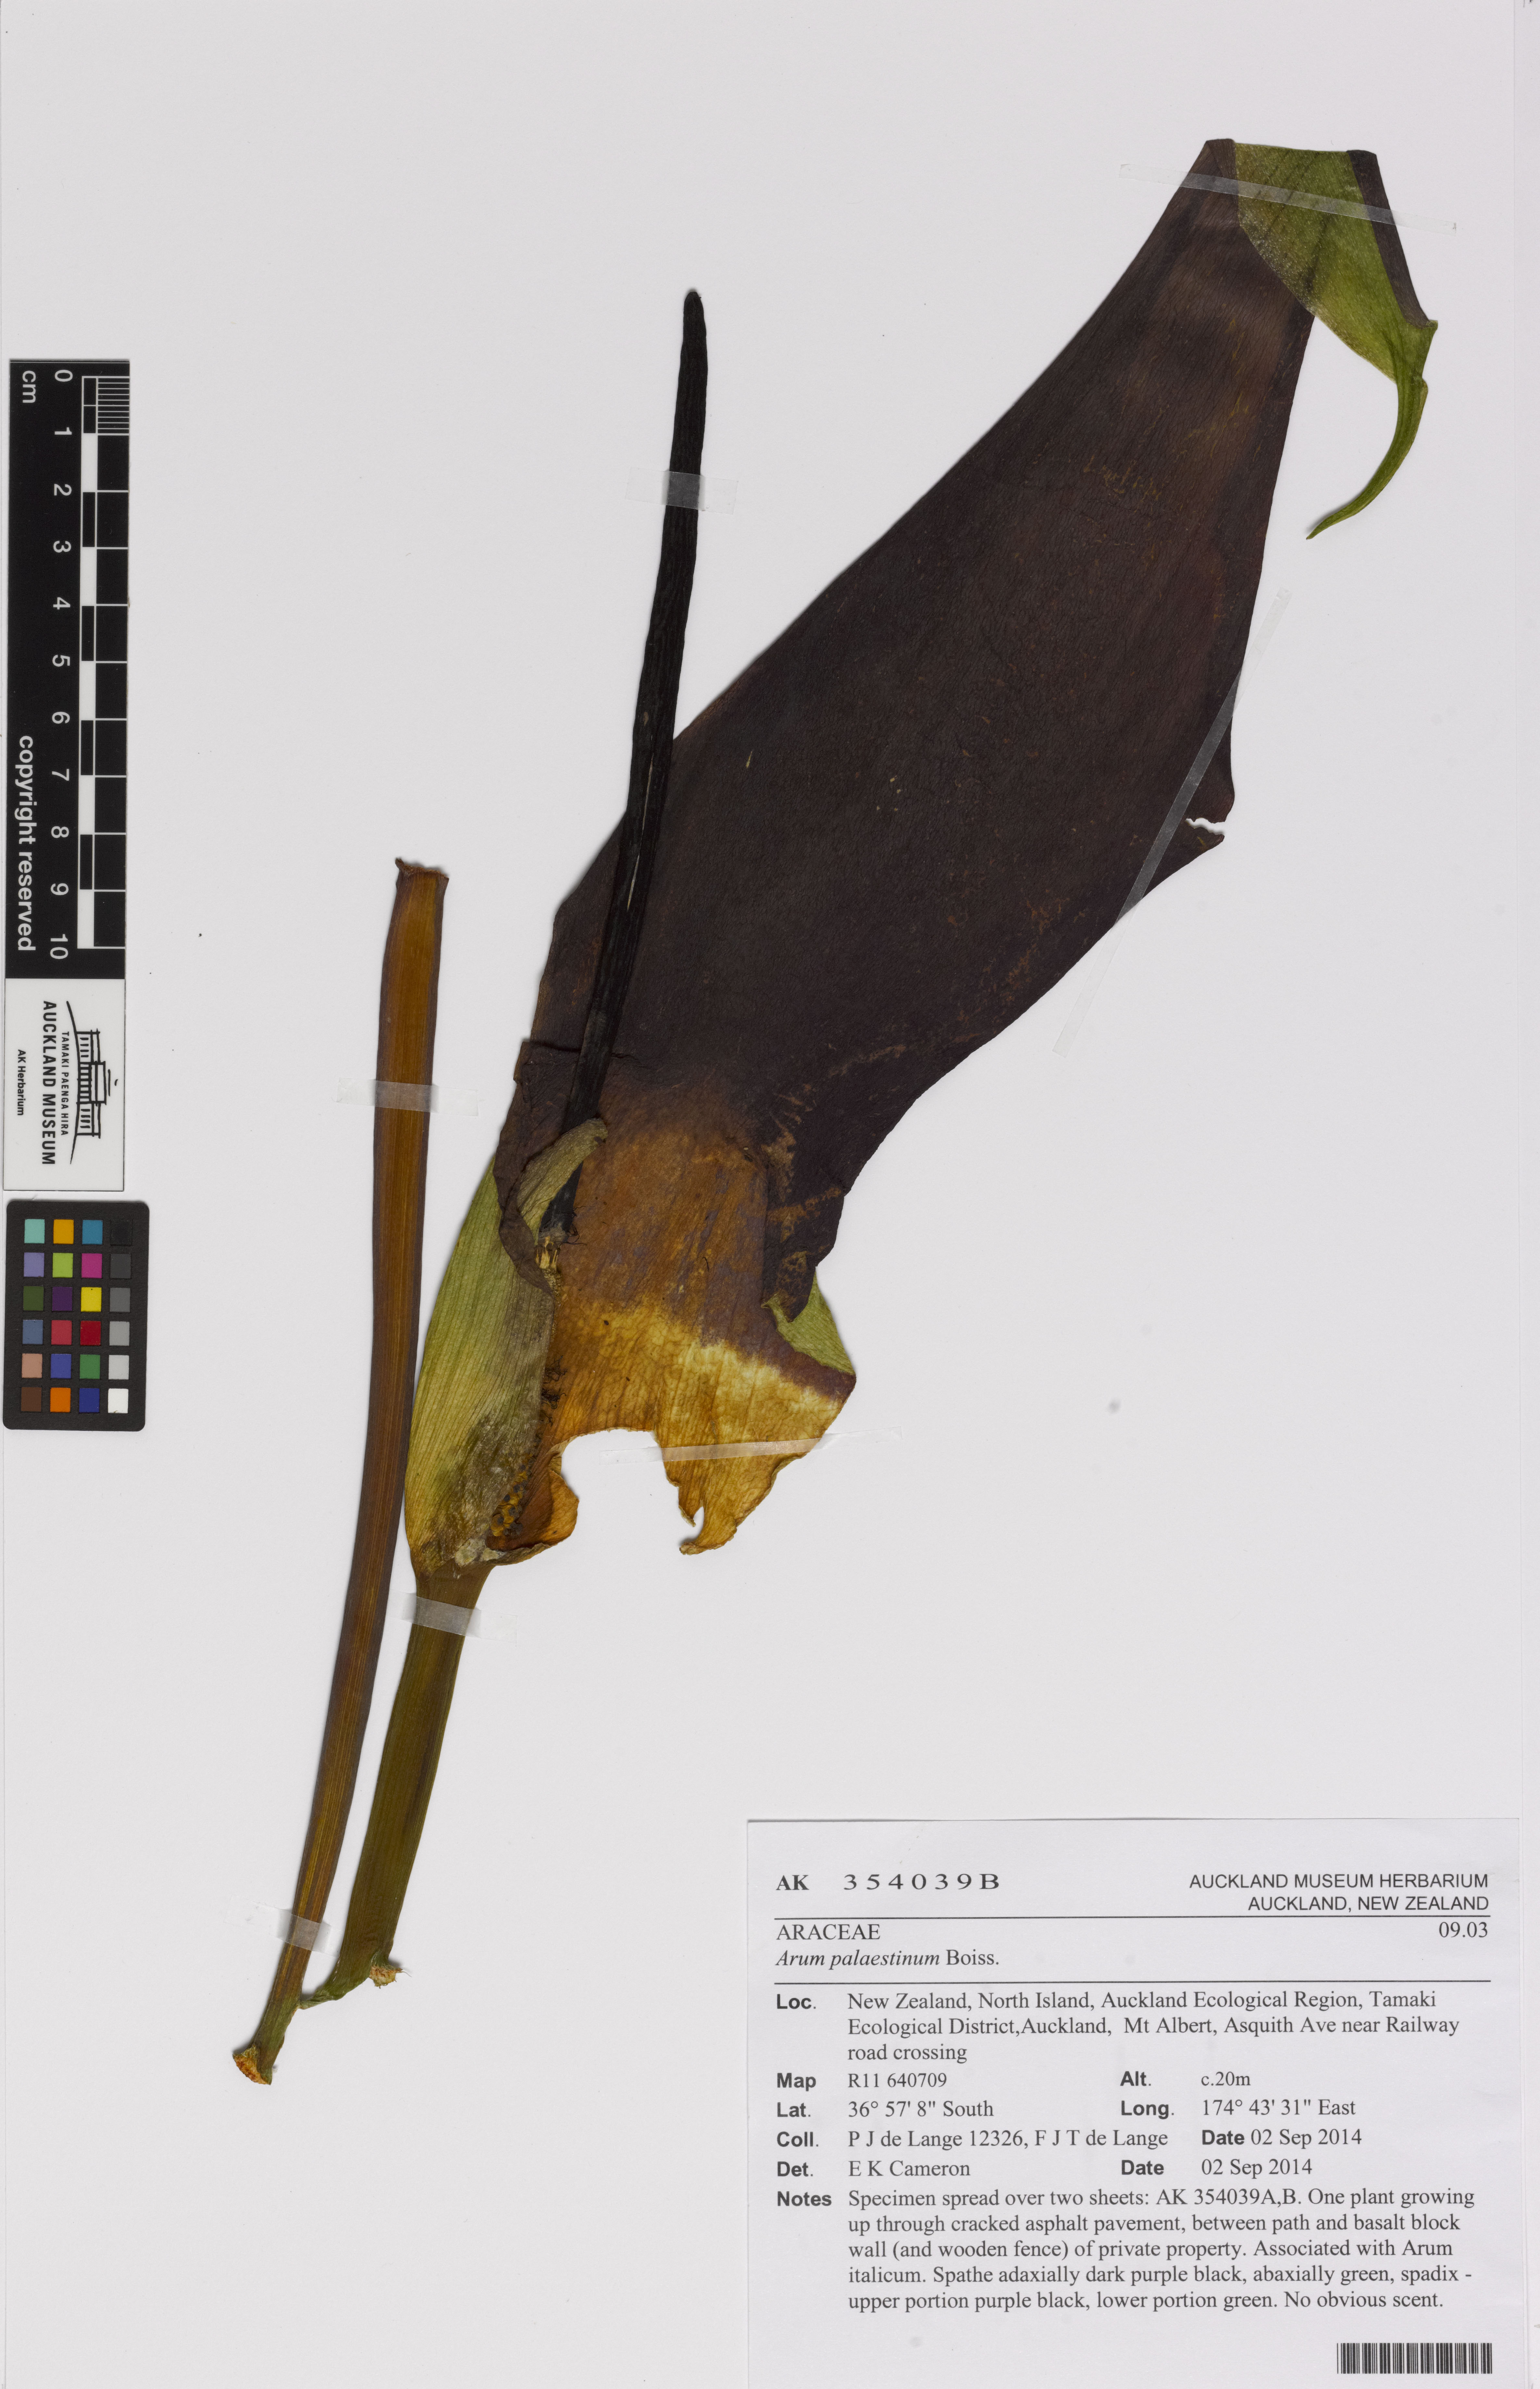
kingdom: Plantae
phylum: Tracheophyta
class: Liliopsida
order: Alismatales
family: Araceae
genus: Arum
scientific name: Arum palaestinum
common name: Solomon's lily
